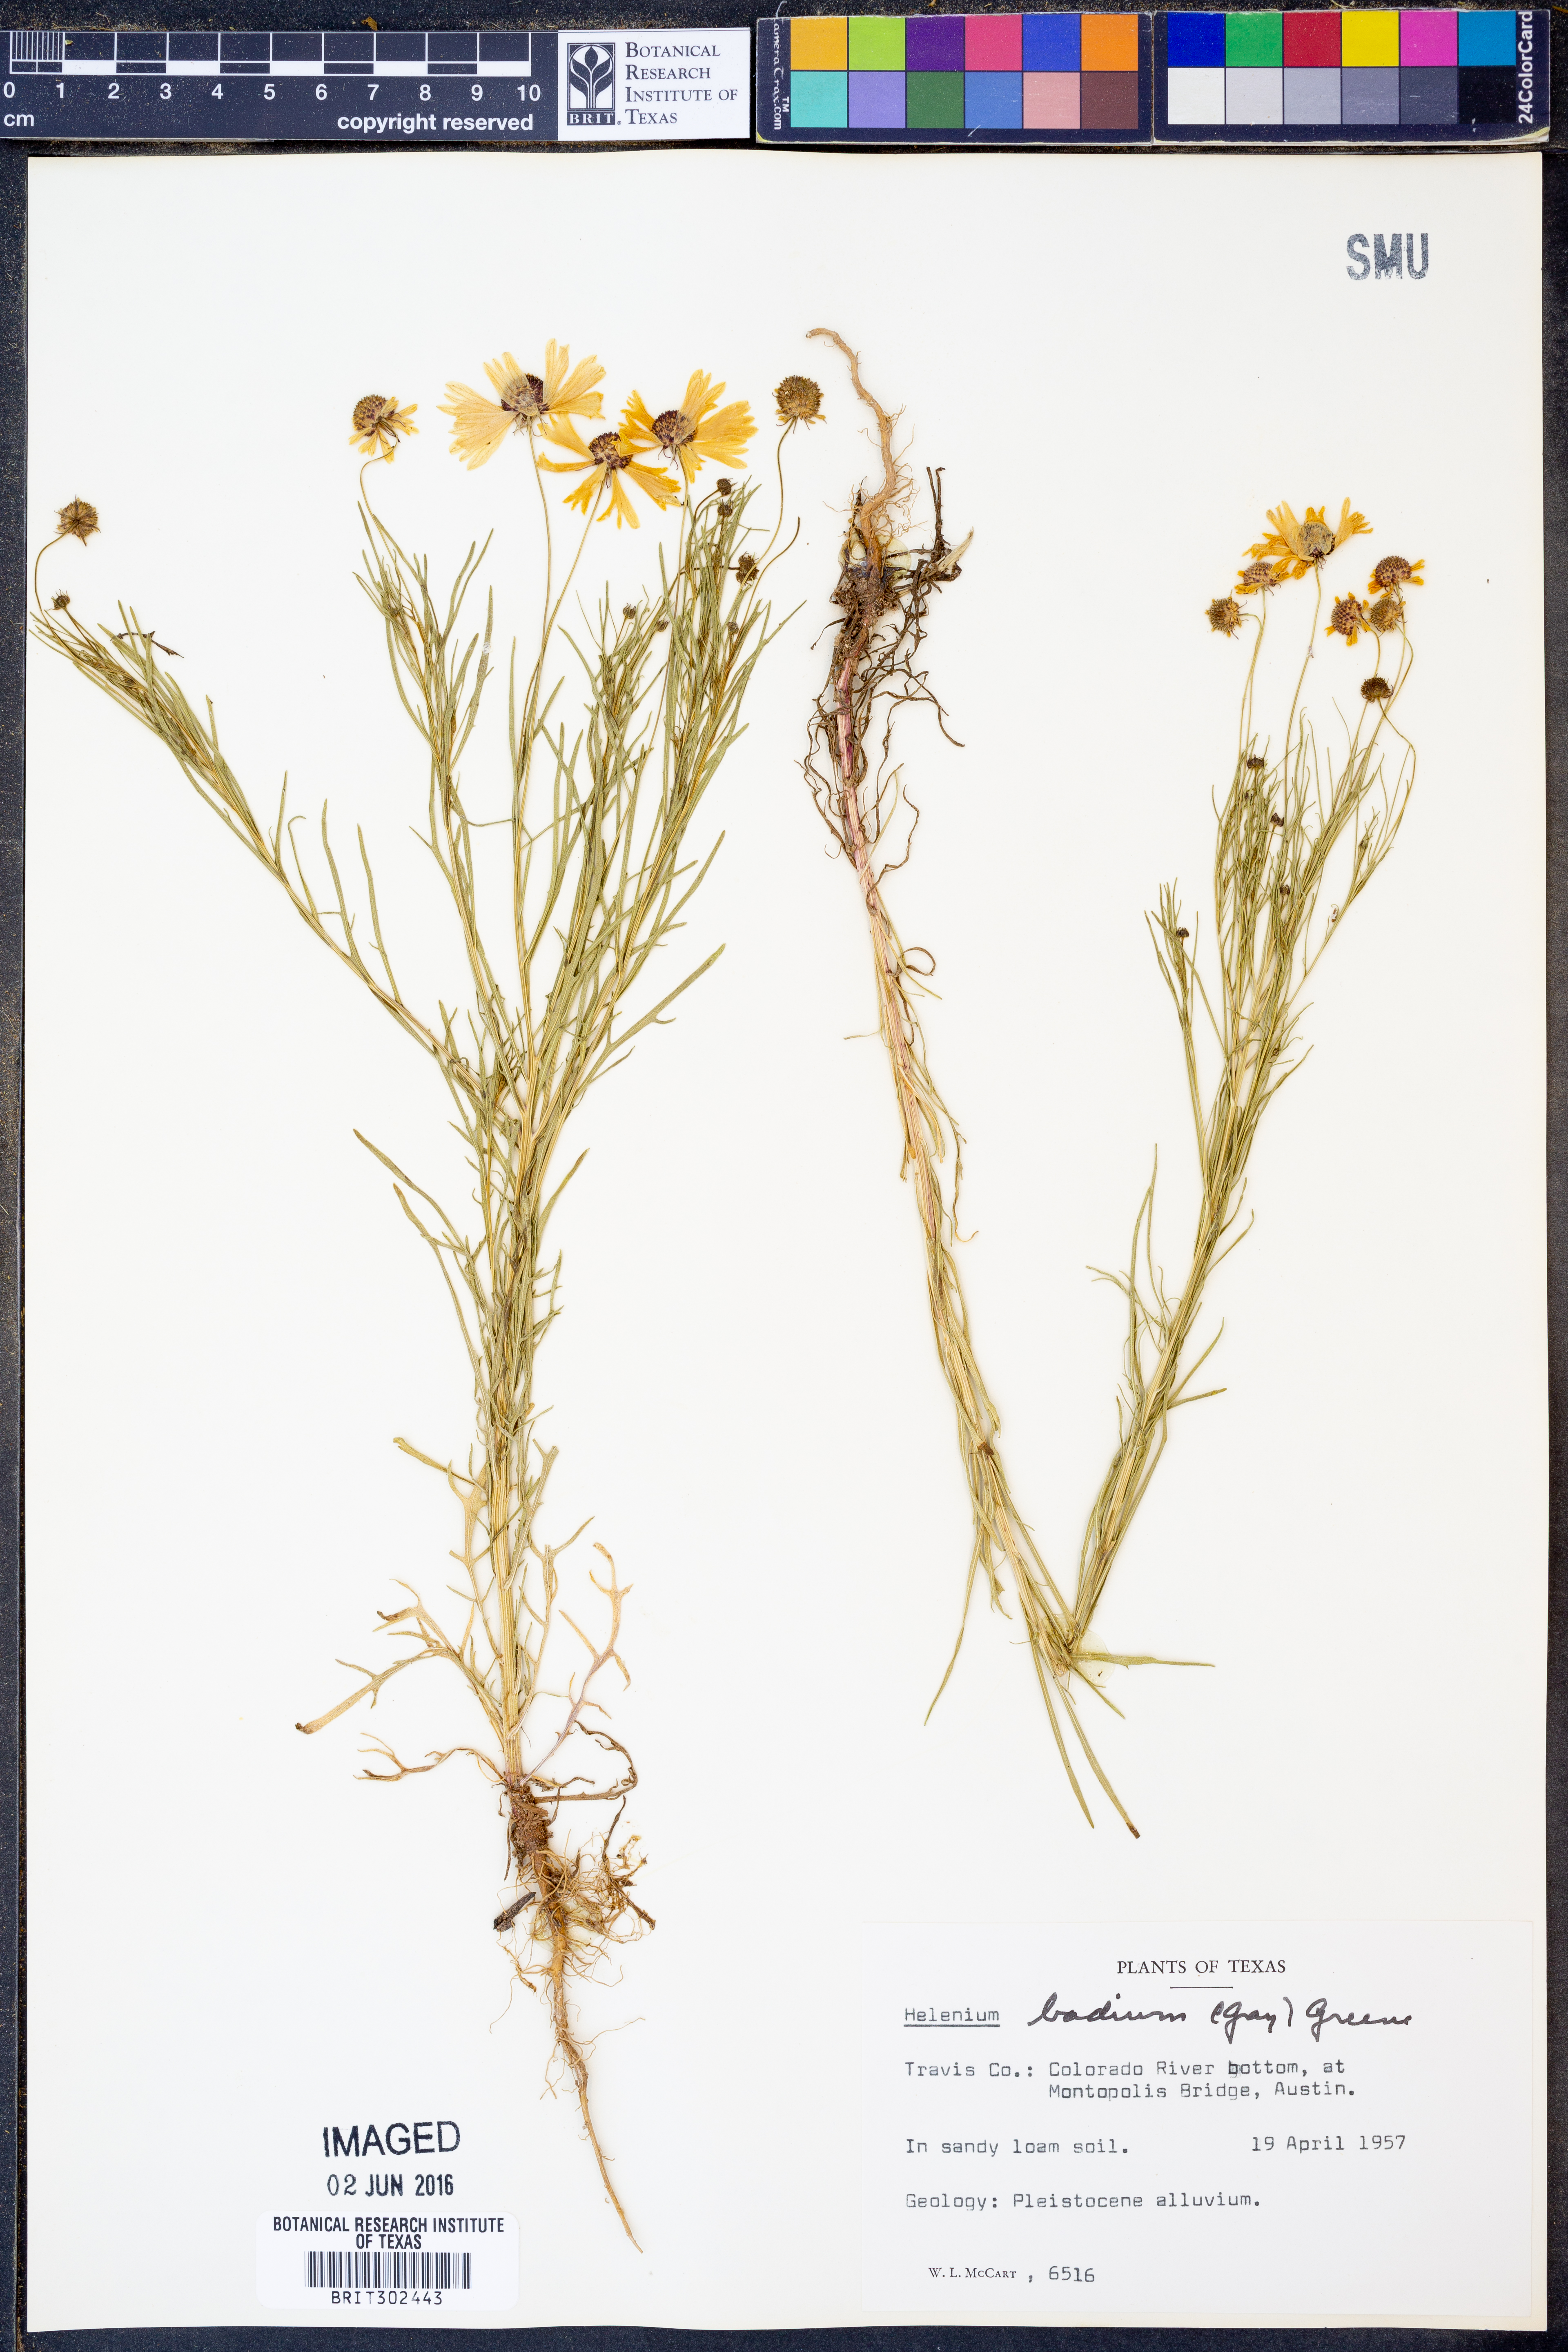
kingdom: Plantae
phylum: Tracheophyta
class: Magnoliopsida
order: Asterales
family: Asteraceae
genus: Helenium
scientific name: Helenium amarum
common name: Bitter sneezeweed
